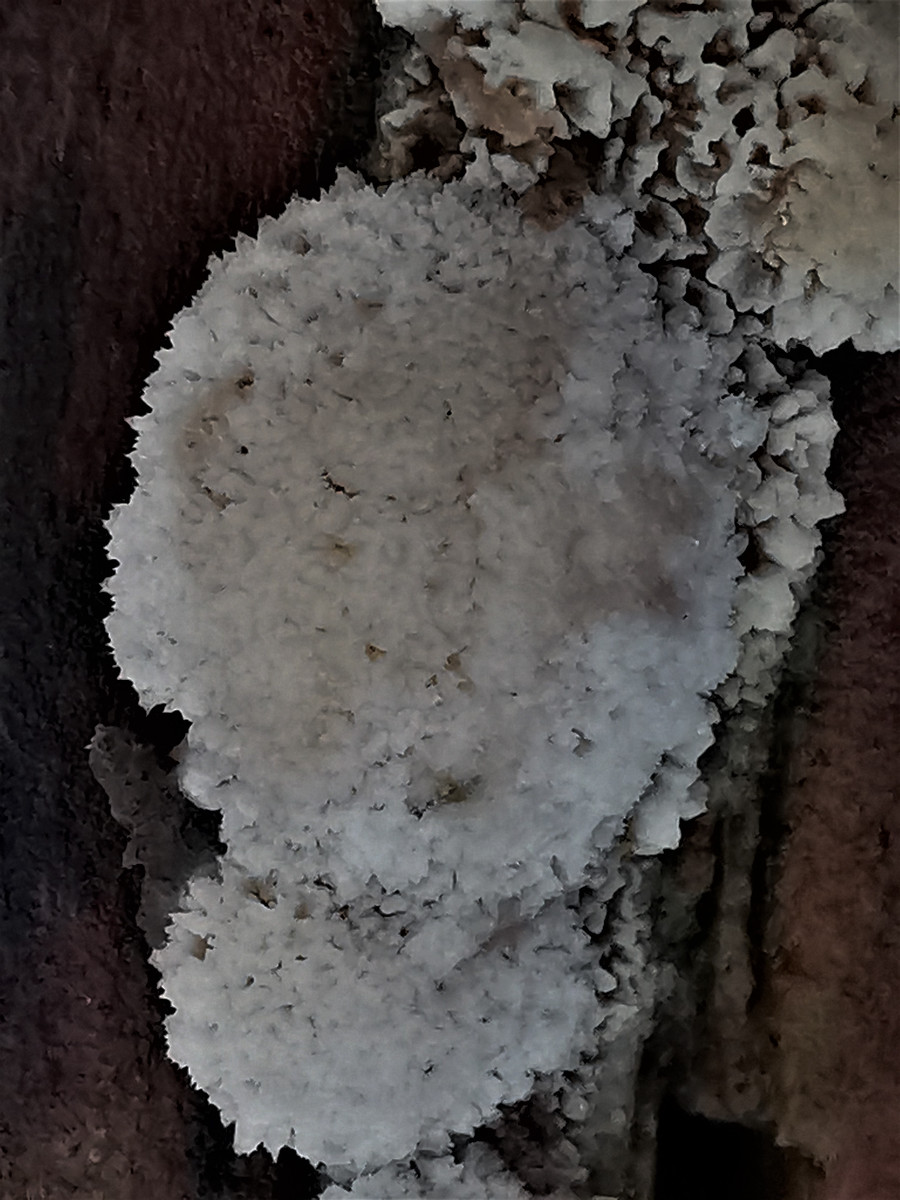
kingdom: Fungi
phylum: Basidiomycota
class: Agaricomycetes
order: Hymenochaetales
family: Schizoporaceae
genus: Xylodon
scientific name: Xylodon
